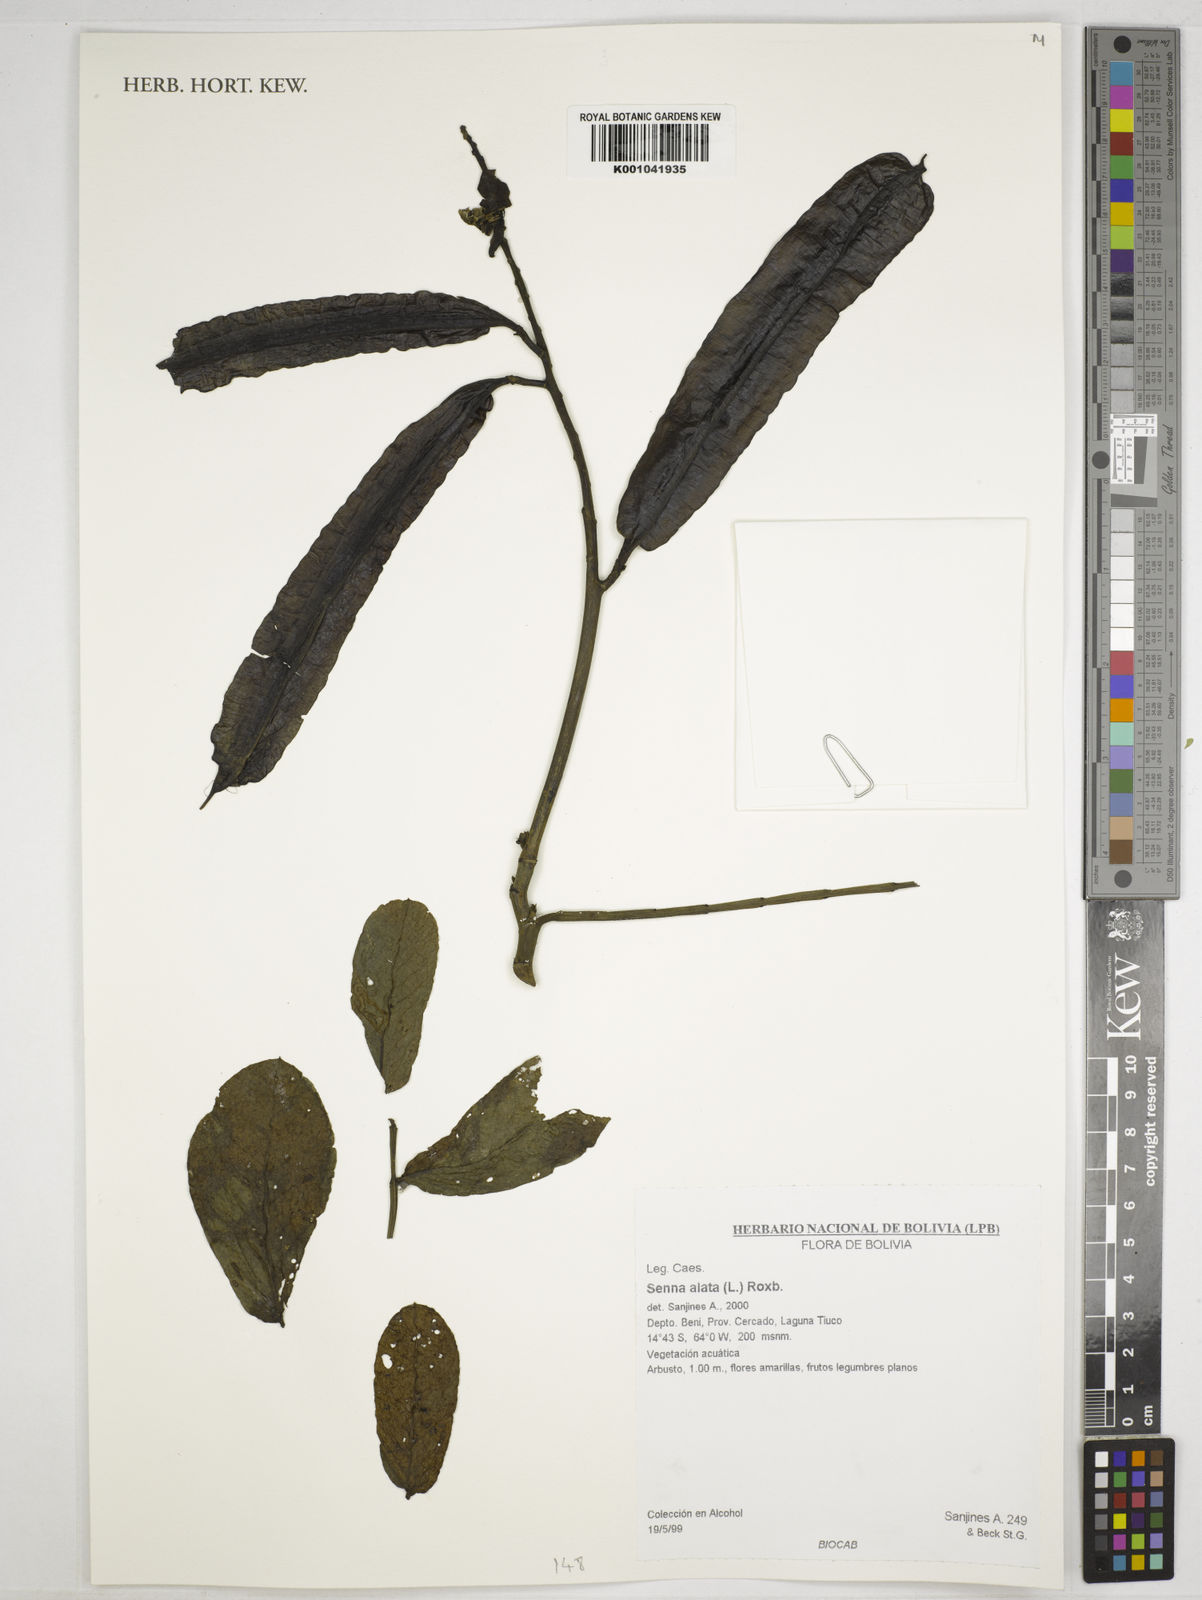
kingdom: Plantae
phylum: Tracheophyta
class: Magnoliopsida
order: Fabales
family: Fabaceae
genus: Senna
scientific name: Senna alata
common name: Emperor's candlesticks
